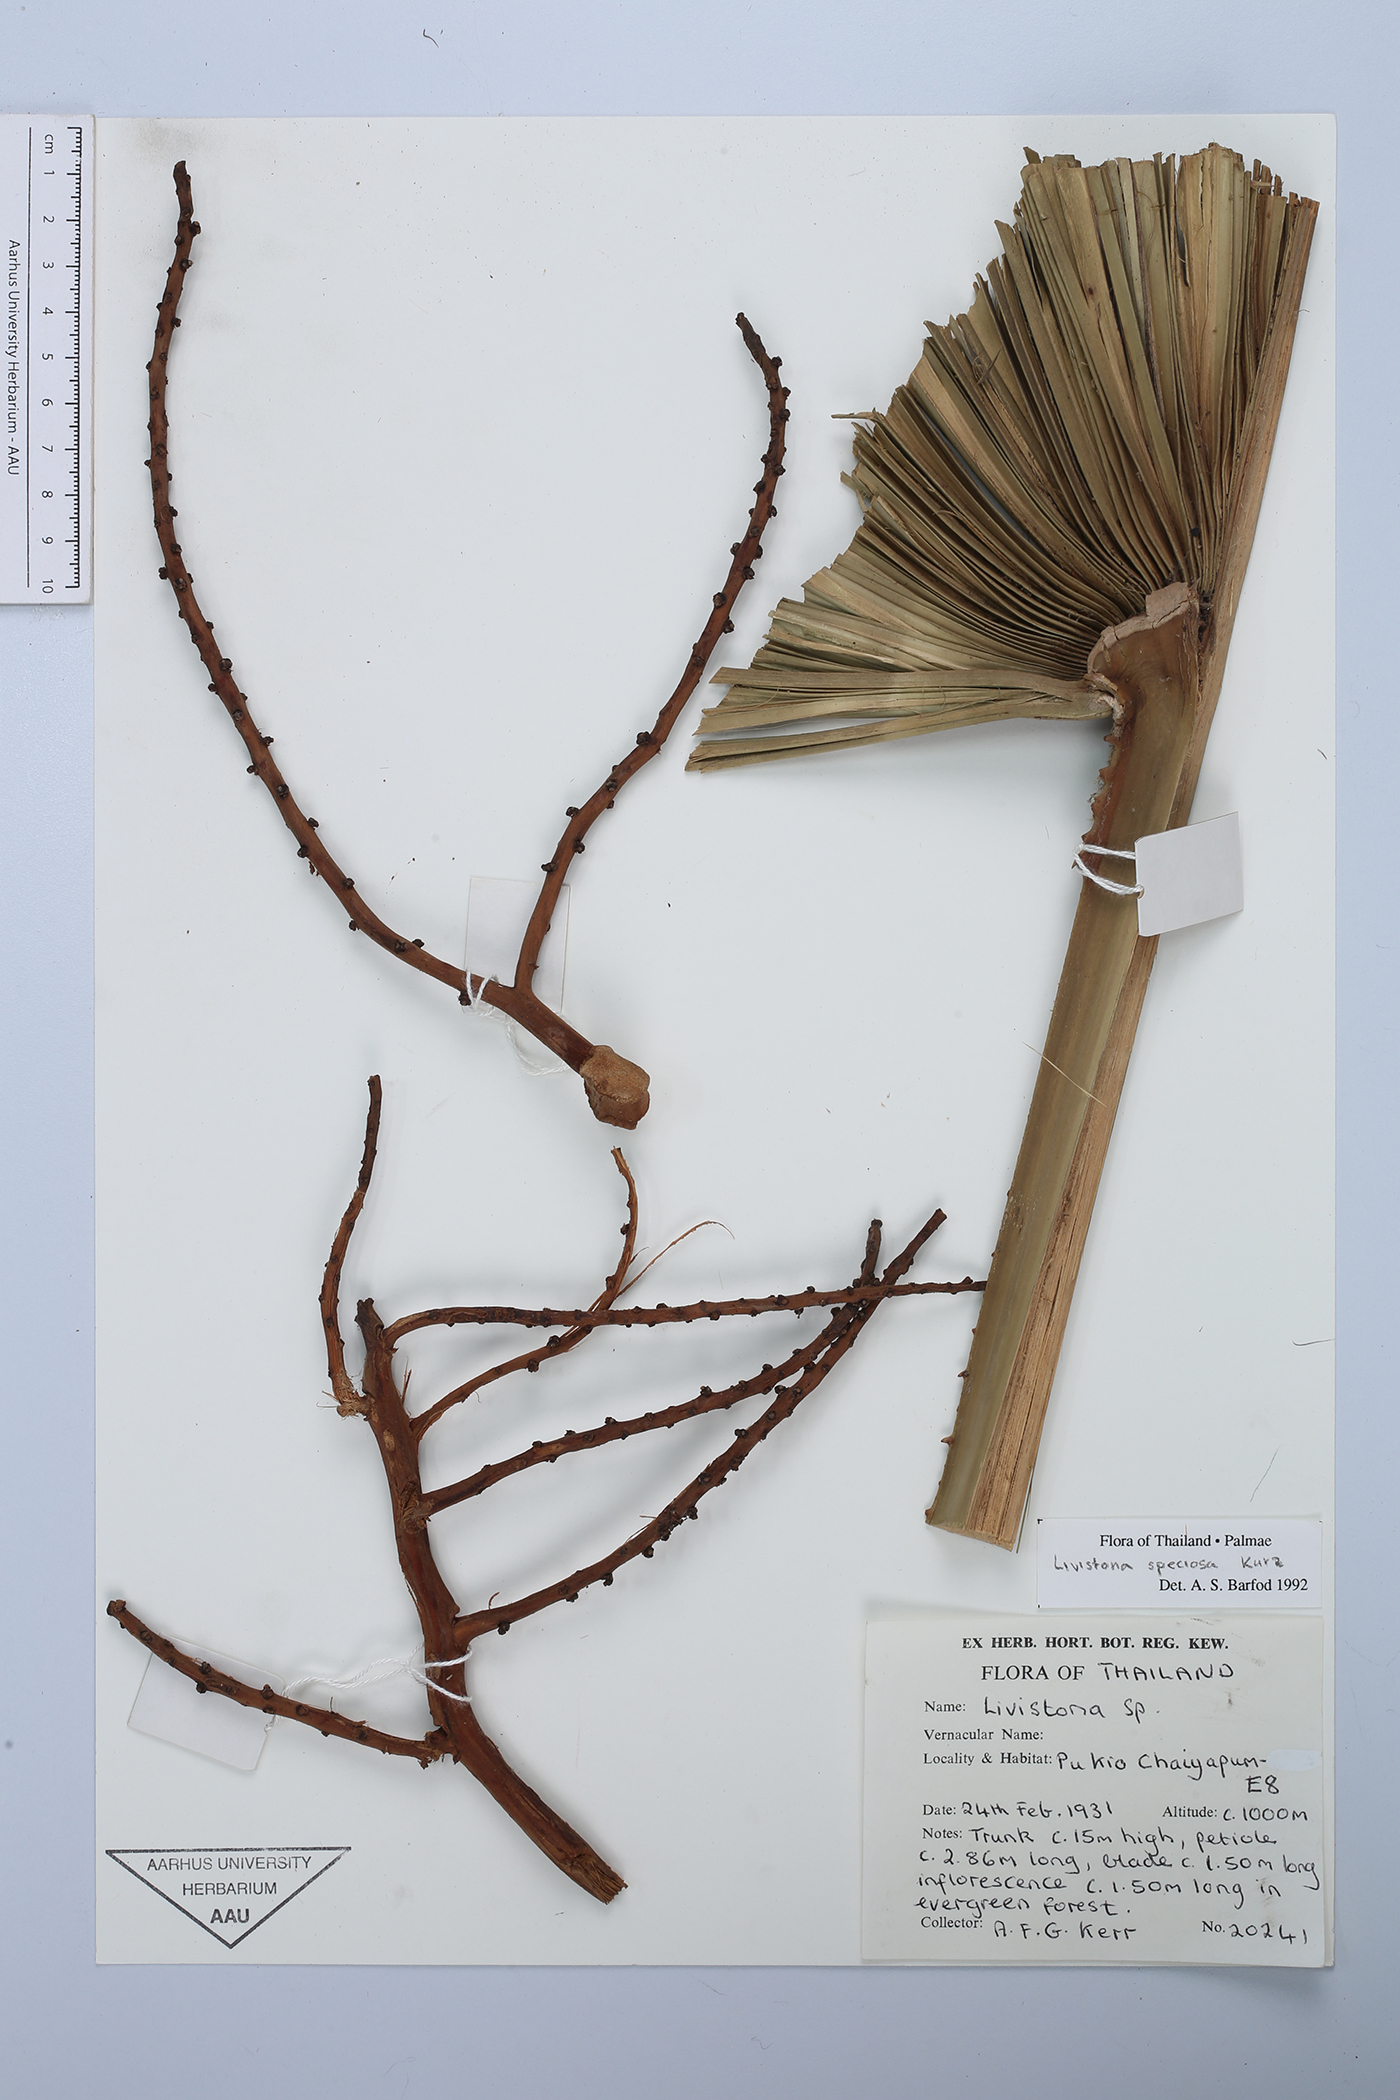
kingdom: Plantae
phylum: Tracheophyta
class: Liliopsida
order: Arecales
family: Arecaceae
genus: Livistona
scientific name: Livistona speciosa
